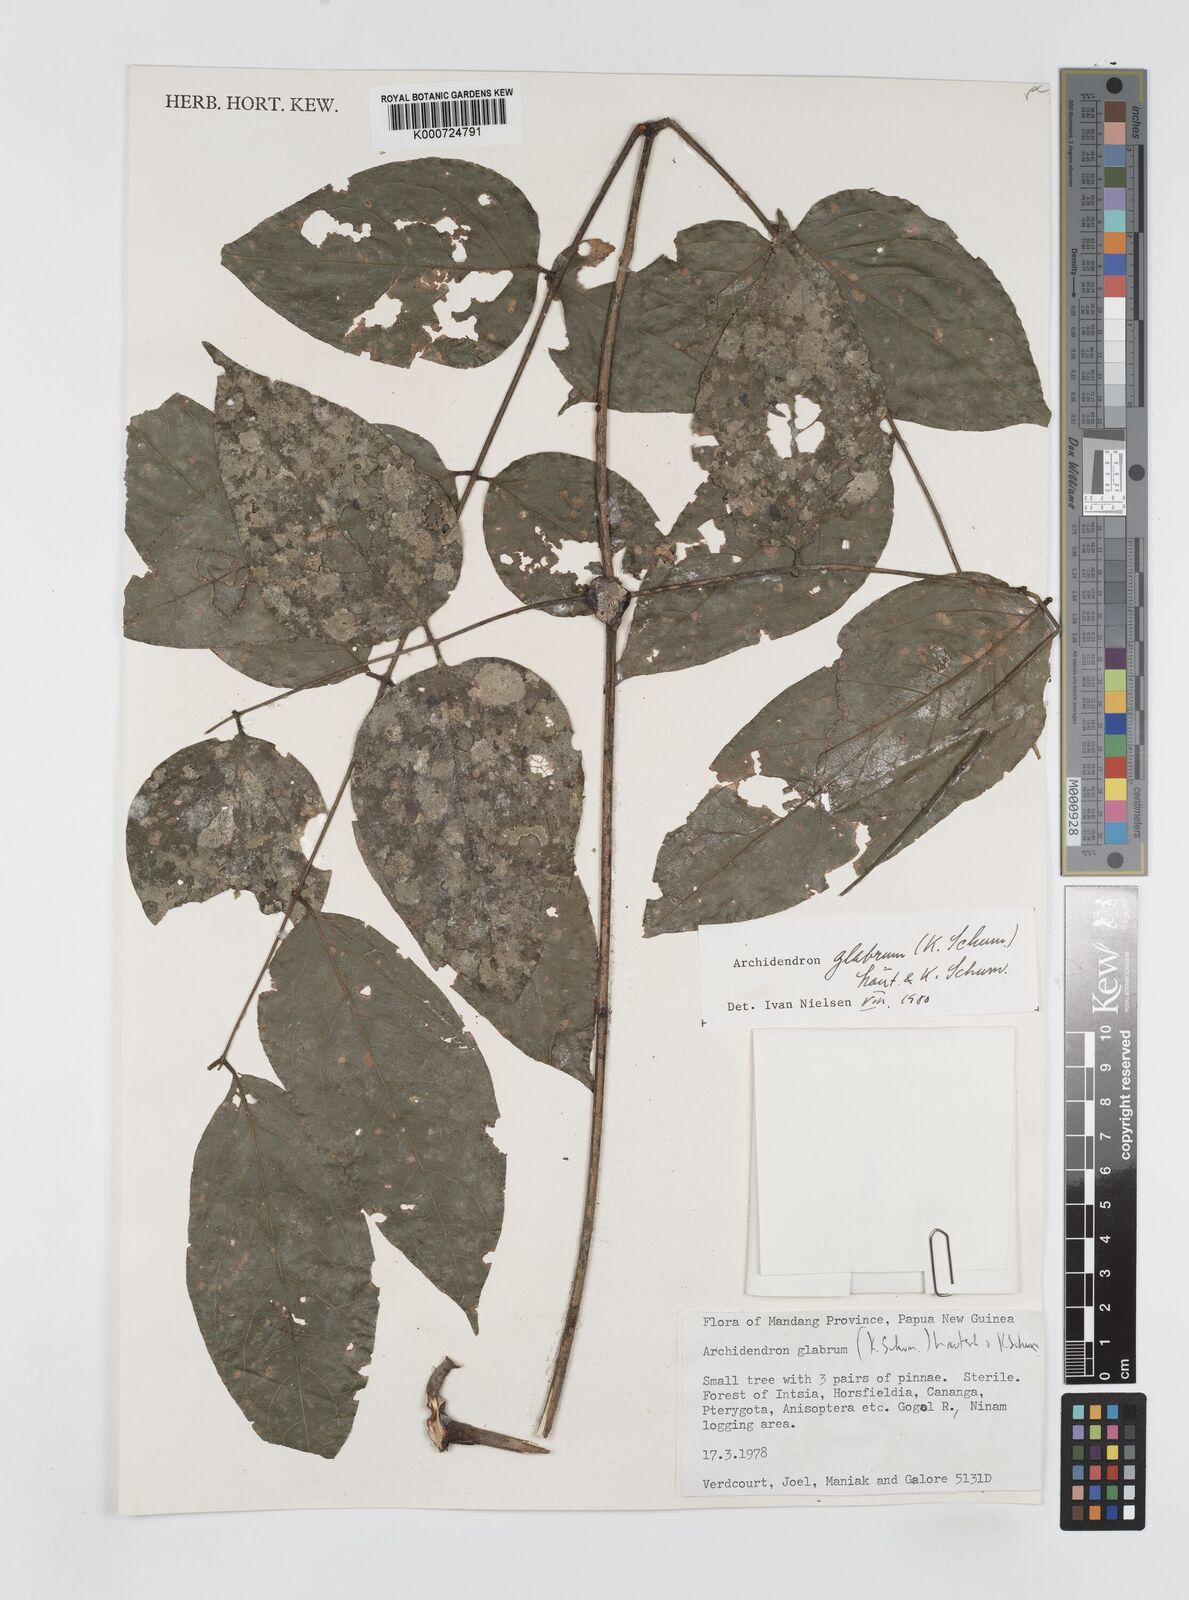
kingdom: Plantae
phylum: Tracheophyta
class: Magnoliopsida
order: Fabales
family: Fabaceae
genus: Archidendron
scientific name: Archidendron glabrum
